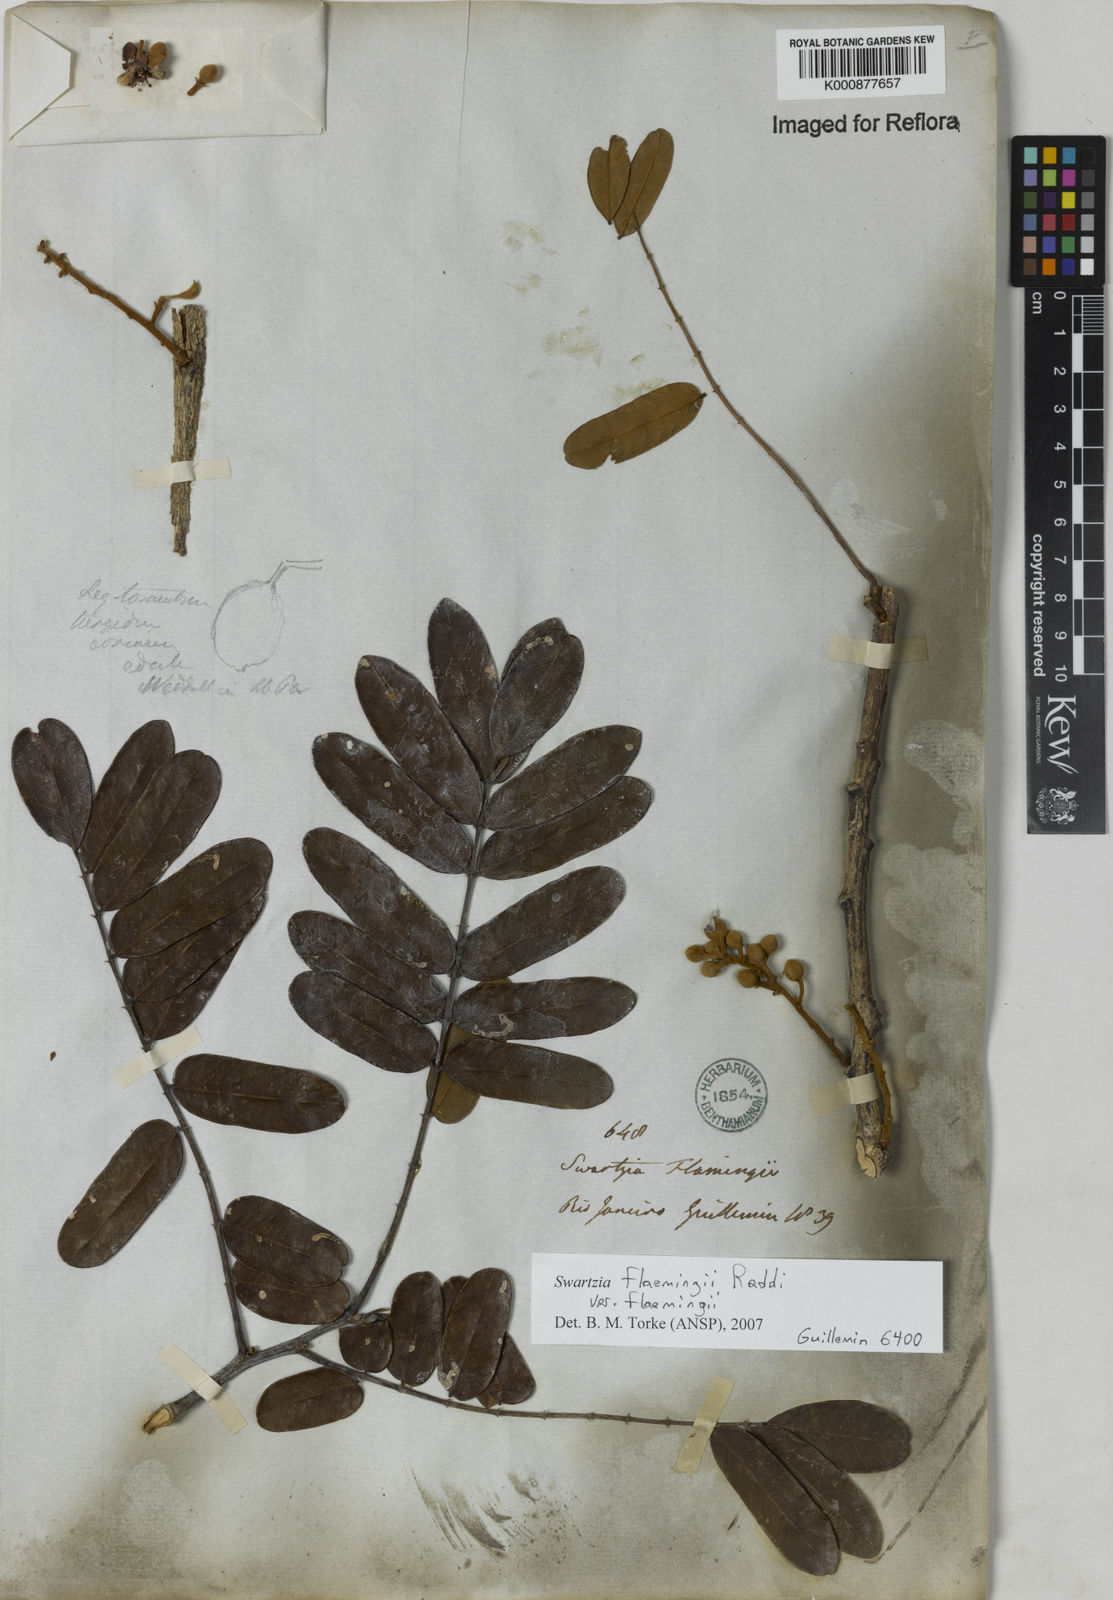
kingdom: Plantae
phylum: Tracheophyta
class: Magnoliopsida
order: Fabales
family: Fabaceae
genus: Swartzia
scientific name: Swartzia flaemingii
